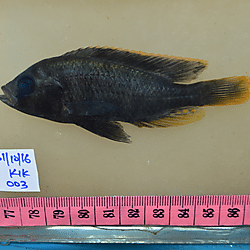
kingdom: Animalia
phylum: Chordata
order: Perciformes
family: Cichlidae
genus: Haplochromis
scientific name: Haplochromis igneopinnis
